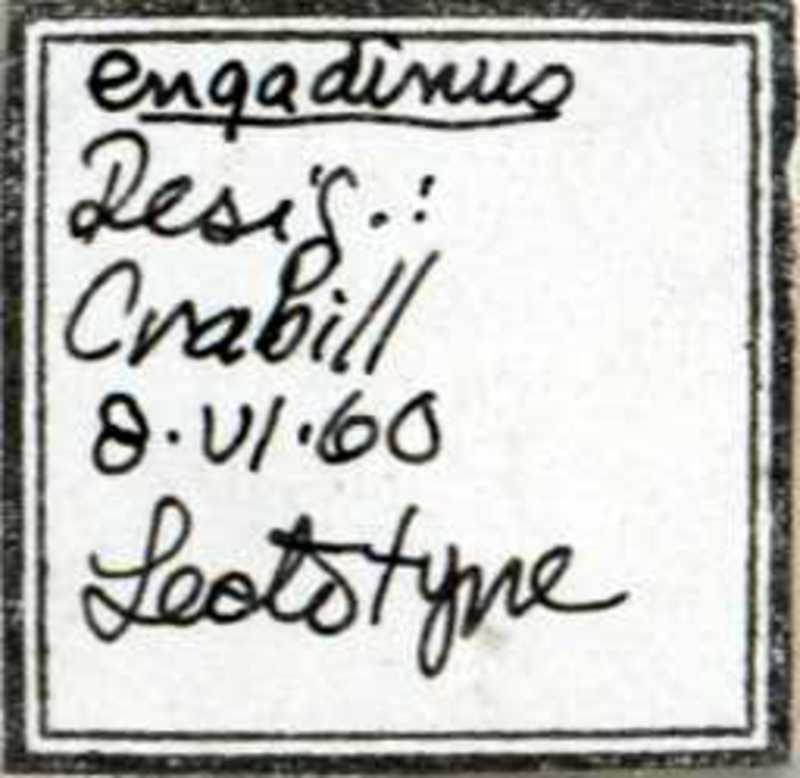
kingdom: Animalia
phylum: Arthropoda
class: Chilopoda
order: Geophilomorpha
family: Linotaeniidae
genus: Strigamia
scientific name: Strigamia engadina
